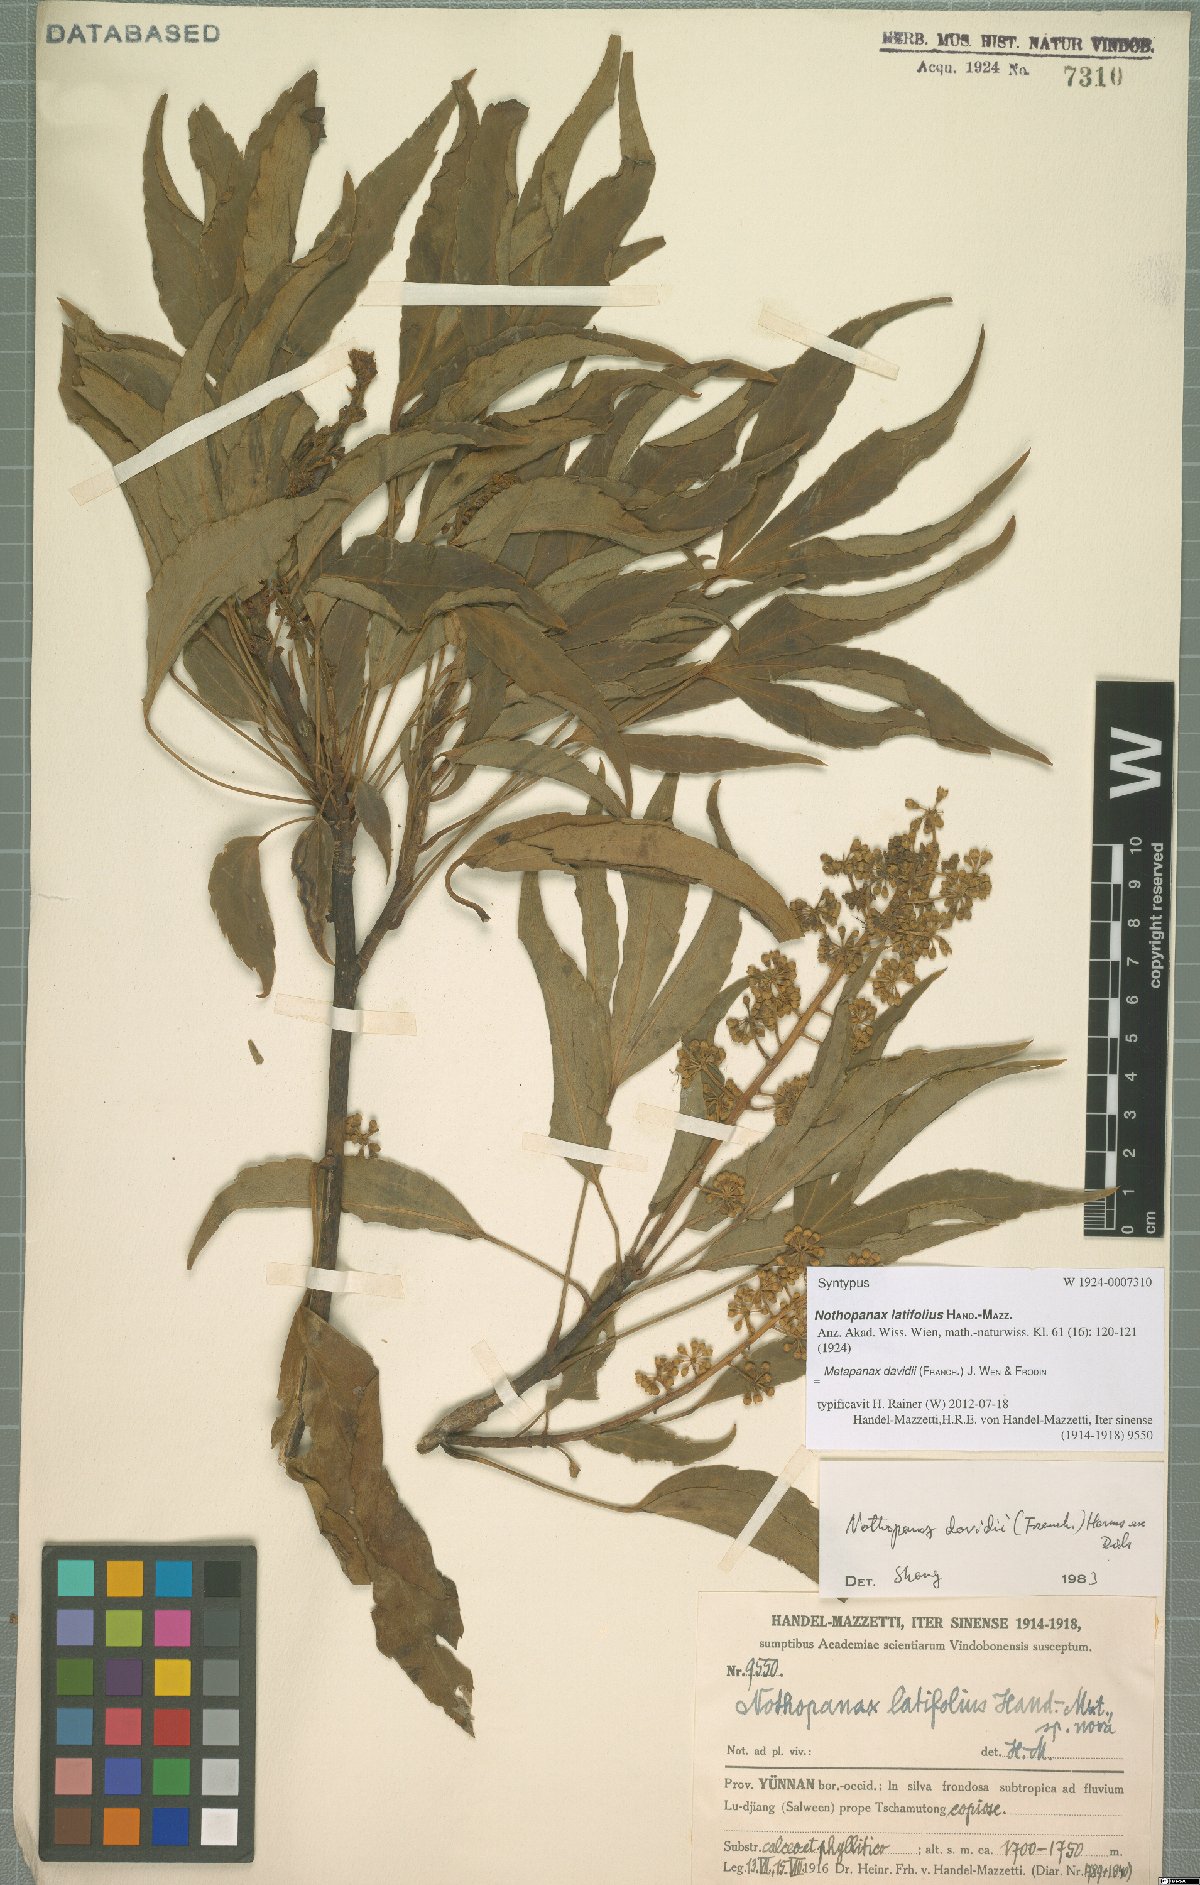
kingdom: Plantae
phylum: Tracheophyta
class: Magnoliopsida
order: Apiales
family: Araliaceae
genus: Metapanax
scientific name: Metapanax davidii
